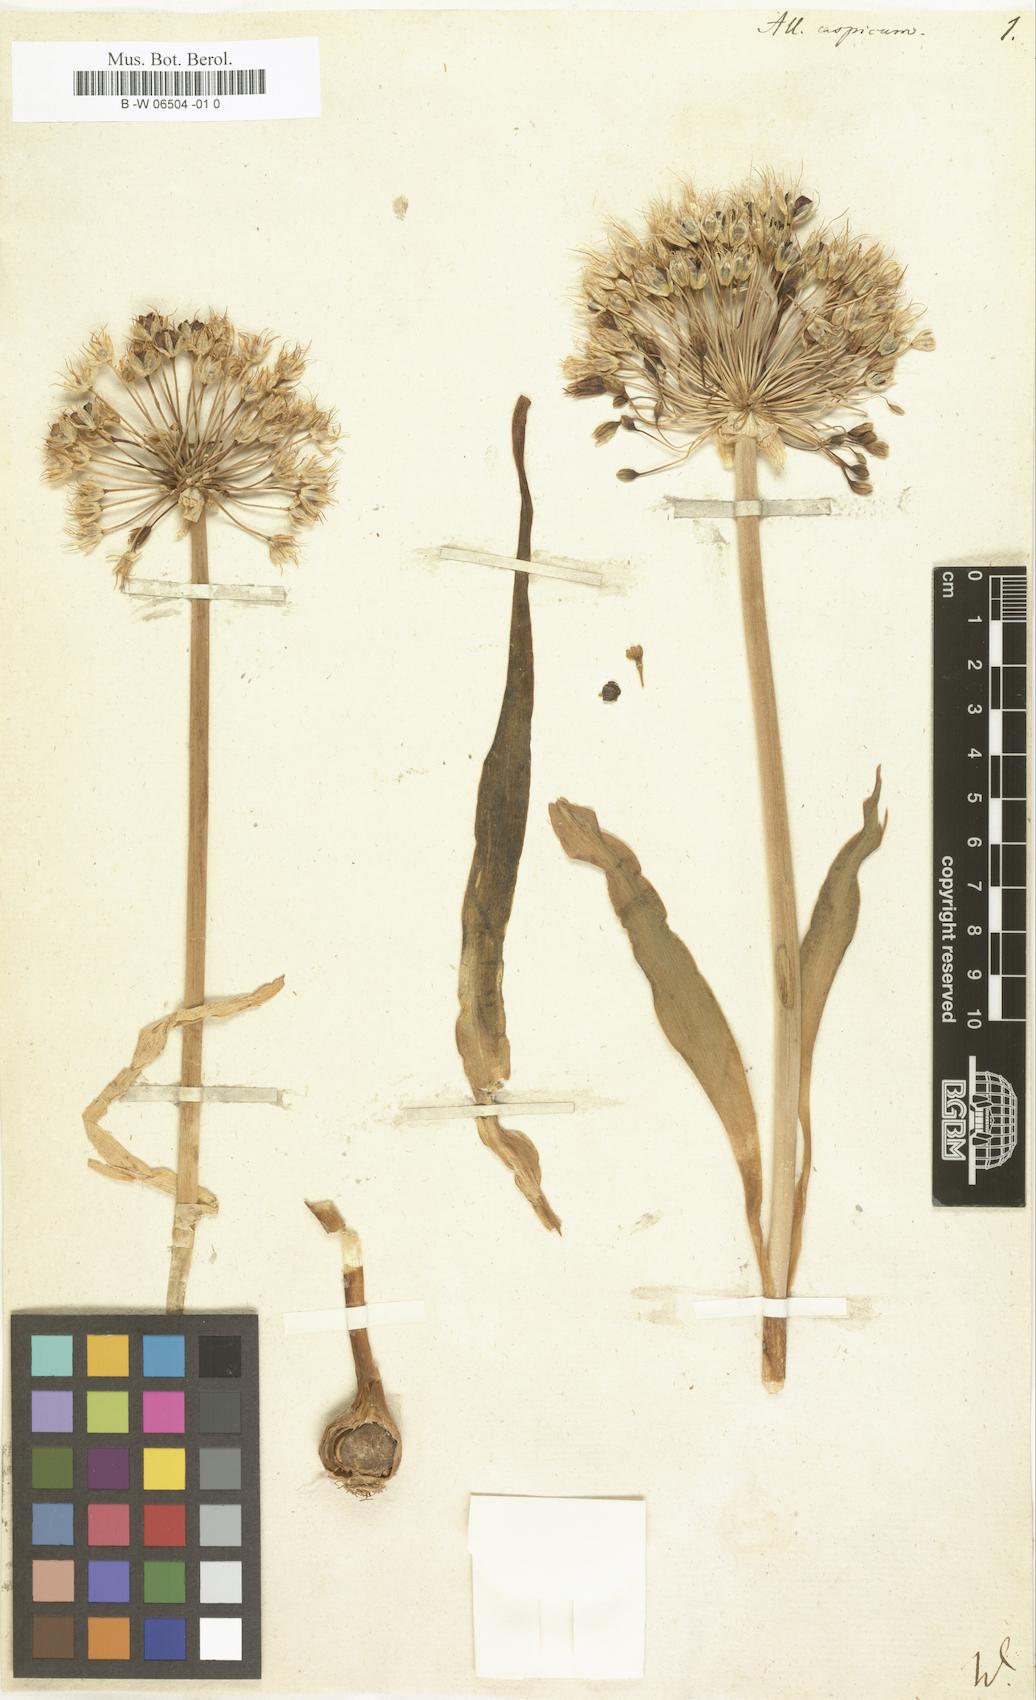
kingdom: Plantae
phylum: Tracheophyta
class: Liliopsida
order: Asparagales
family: Amaryllidaceae
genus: Allium
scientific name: Allium caspium
